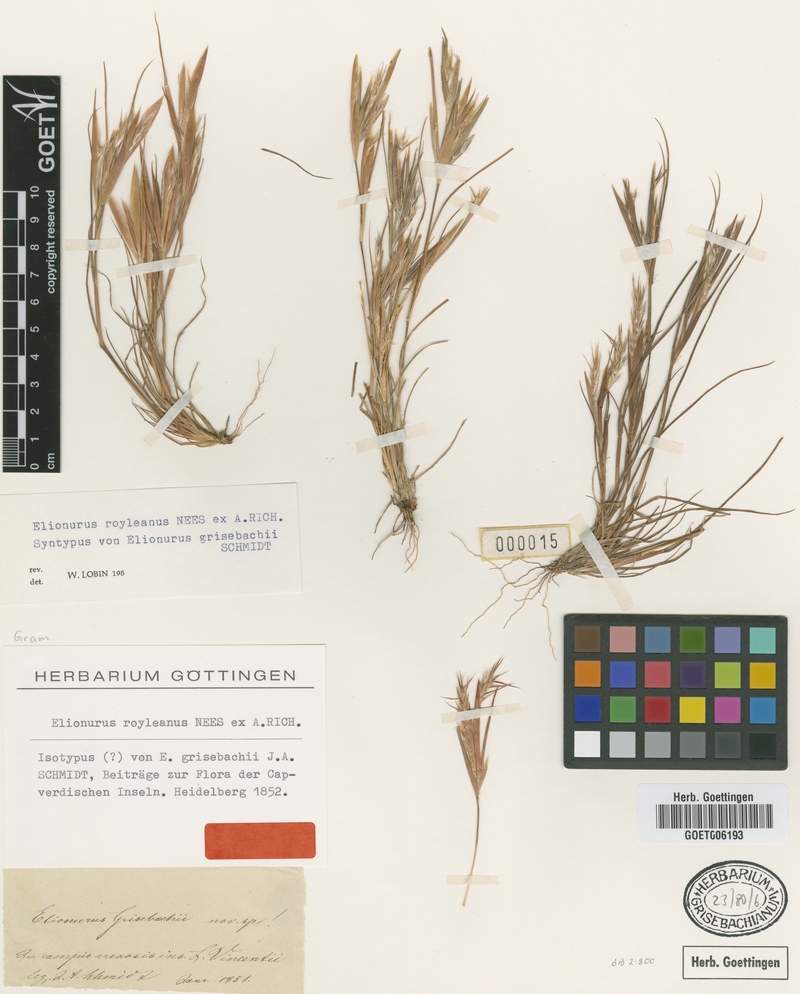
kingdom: Plantae
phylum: Tracheophyta
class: Liliopsida
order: Poales
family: Poaceae
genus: Elionurus
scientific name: Elionurus royleanus
